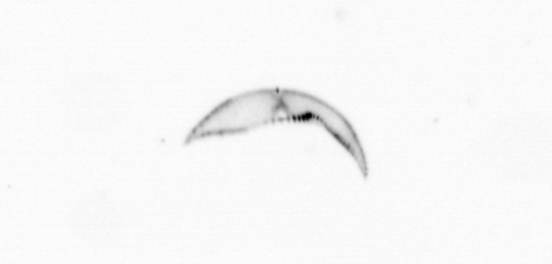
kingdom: Chromista
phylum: Ochrophyta
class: Bacillariophyceae
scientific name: Bacillariophyceae
